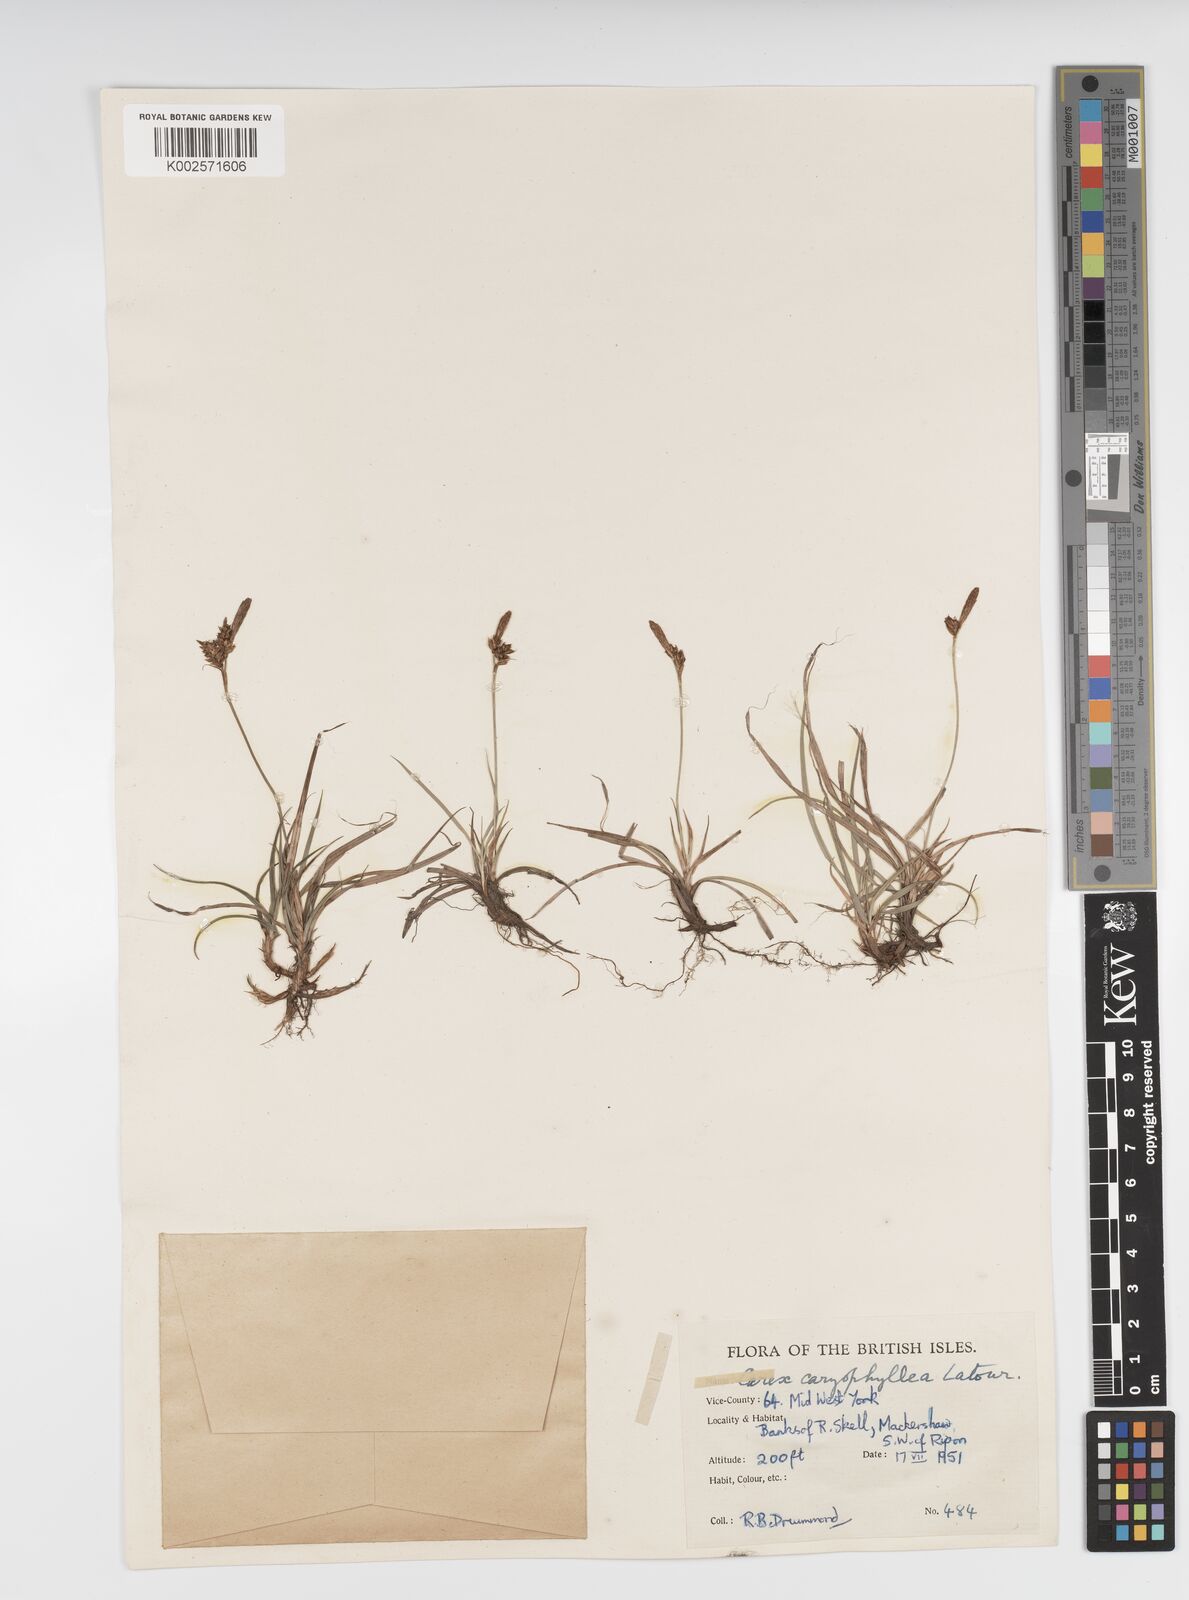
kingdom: Plantae
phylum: Tracheophyta
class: Liliopsida
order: Poales
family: Cyperaceae
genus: Carex
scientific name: Carex caryophyllea
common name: Spring sedge
